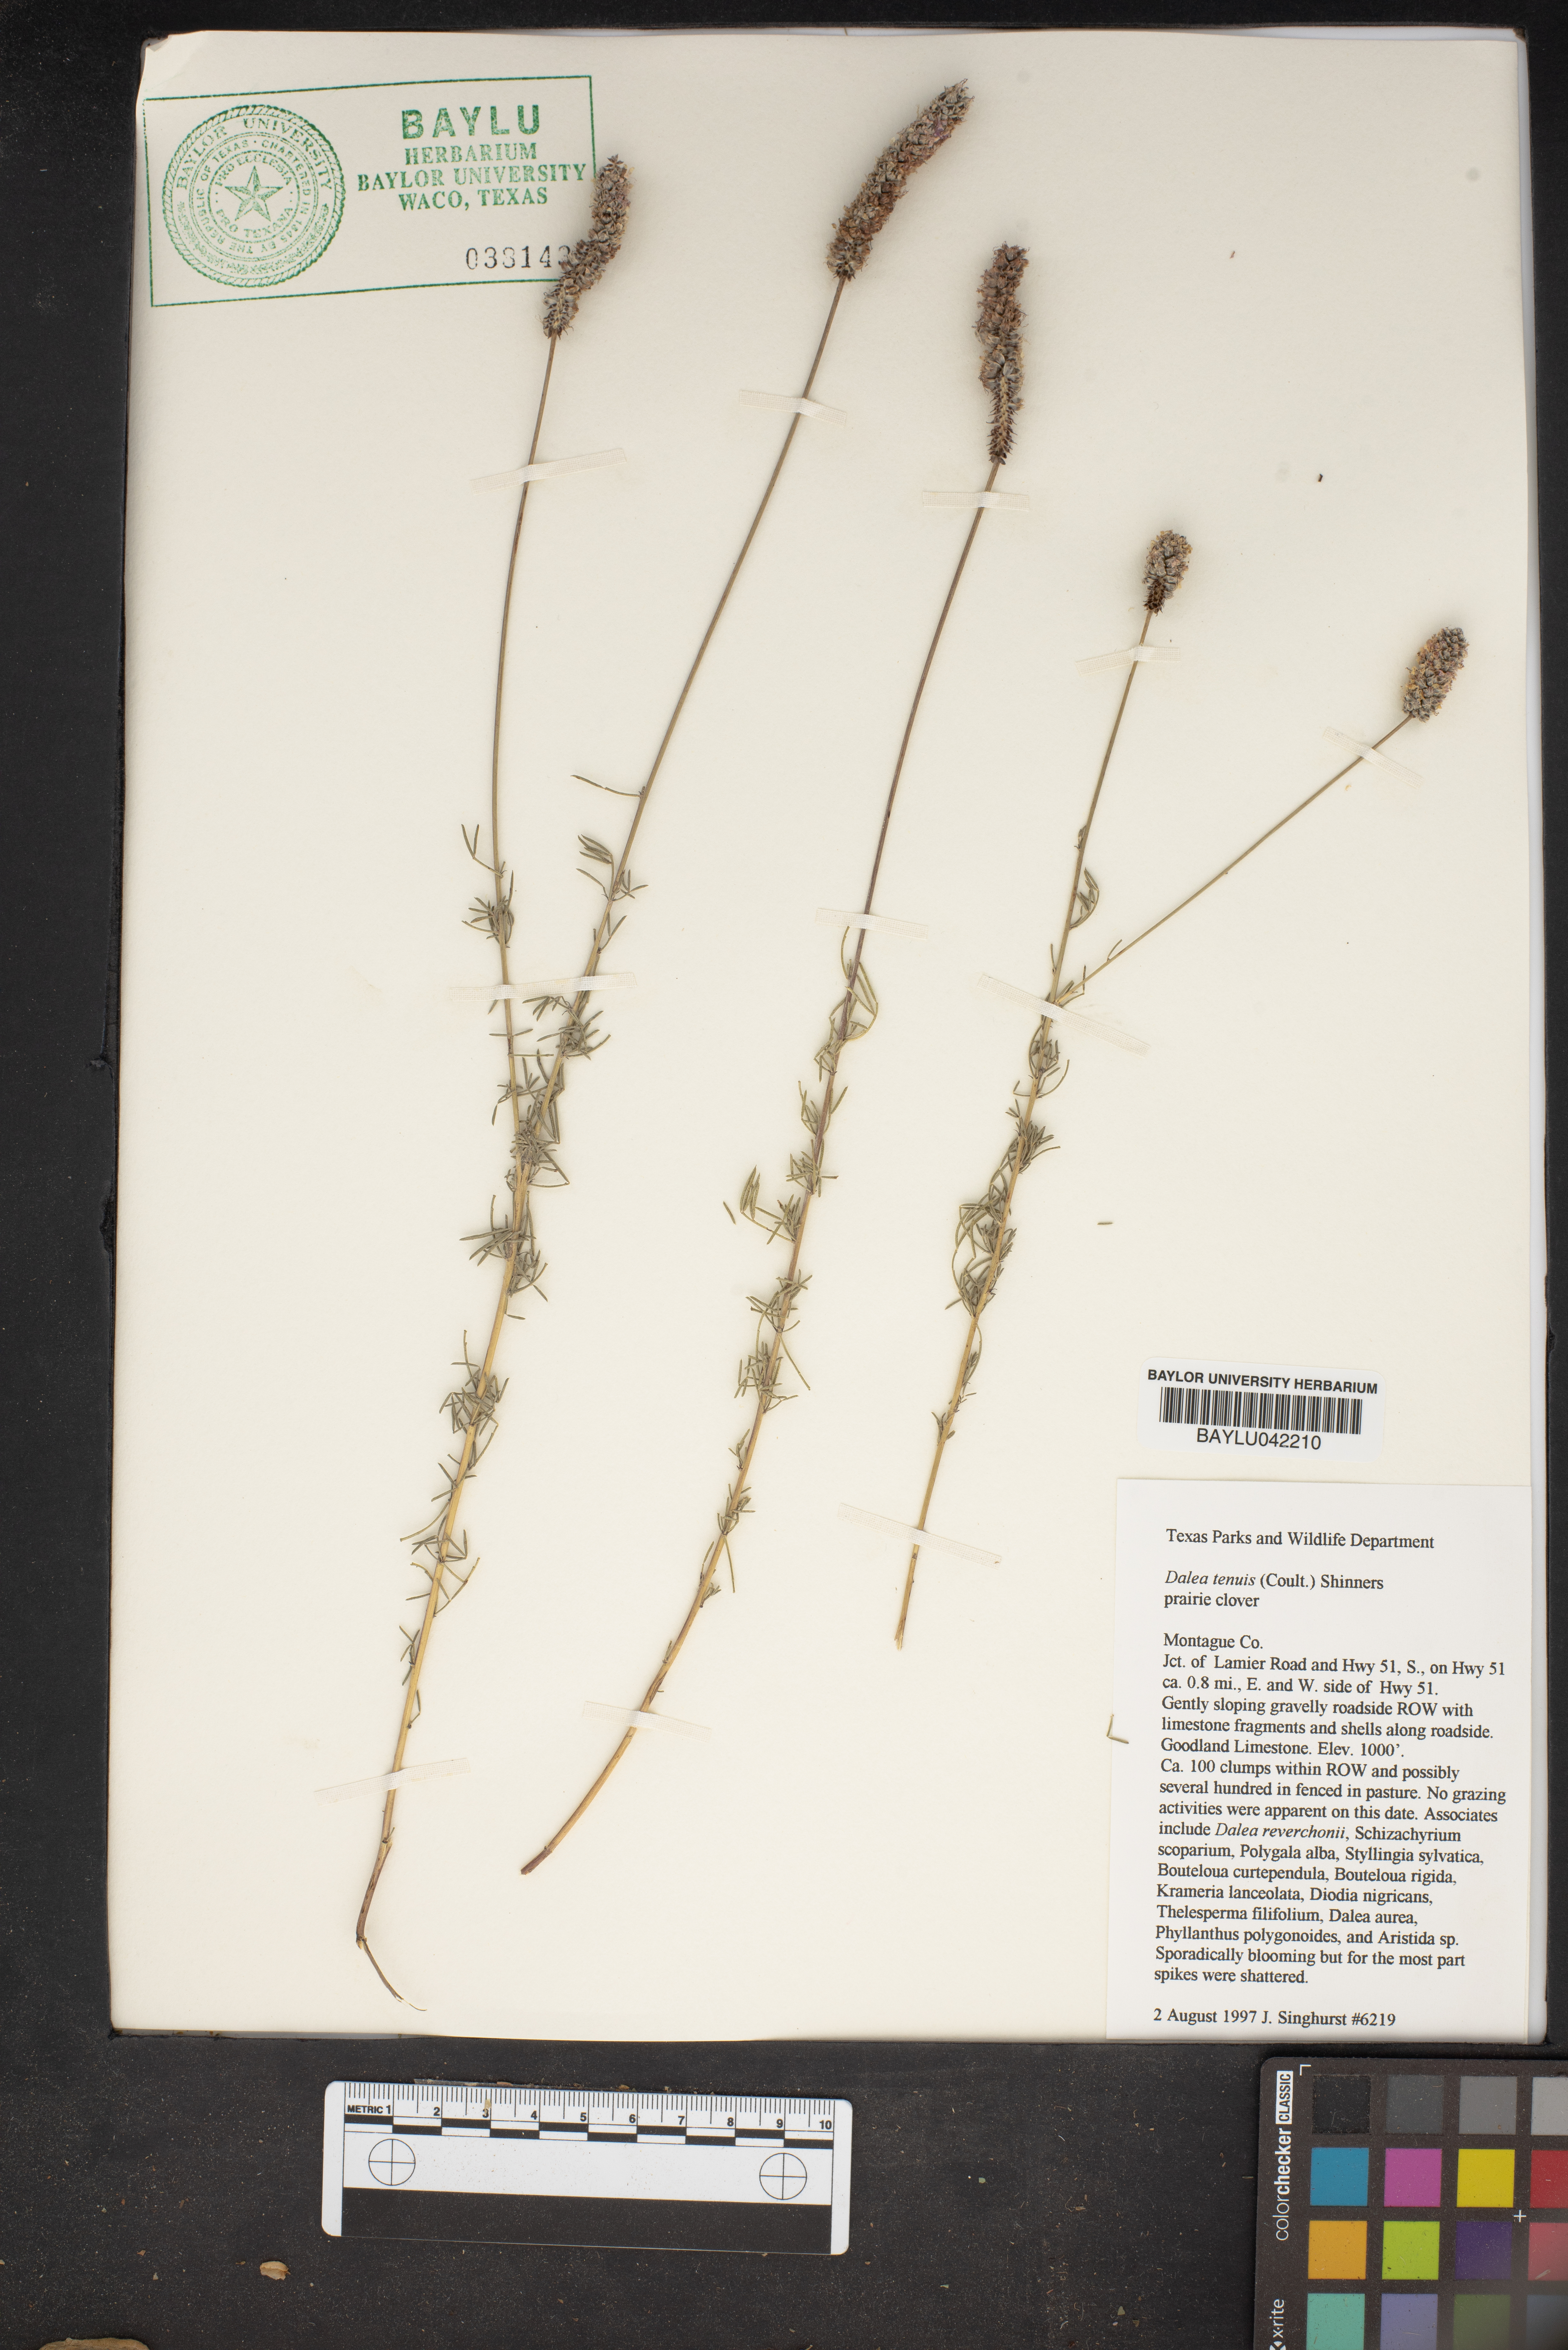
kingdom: Plantae
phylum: Tracheophyta
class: Magnoliopsida
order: Fabales
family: Fabaceae
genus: Dalea
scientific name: Dalea tenuis
